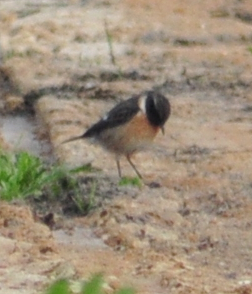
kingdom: Animalia
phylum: Chordata
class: Aves
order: Passeriformes
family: Muscicapidae
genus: Saxicola
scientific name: Saxicola rubicola
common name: European stonechat
